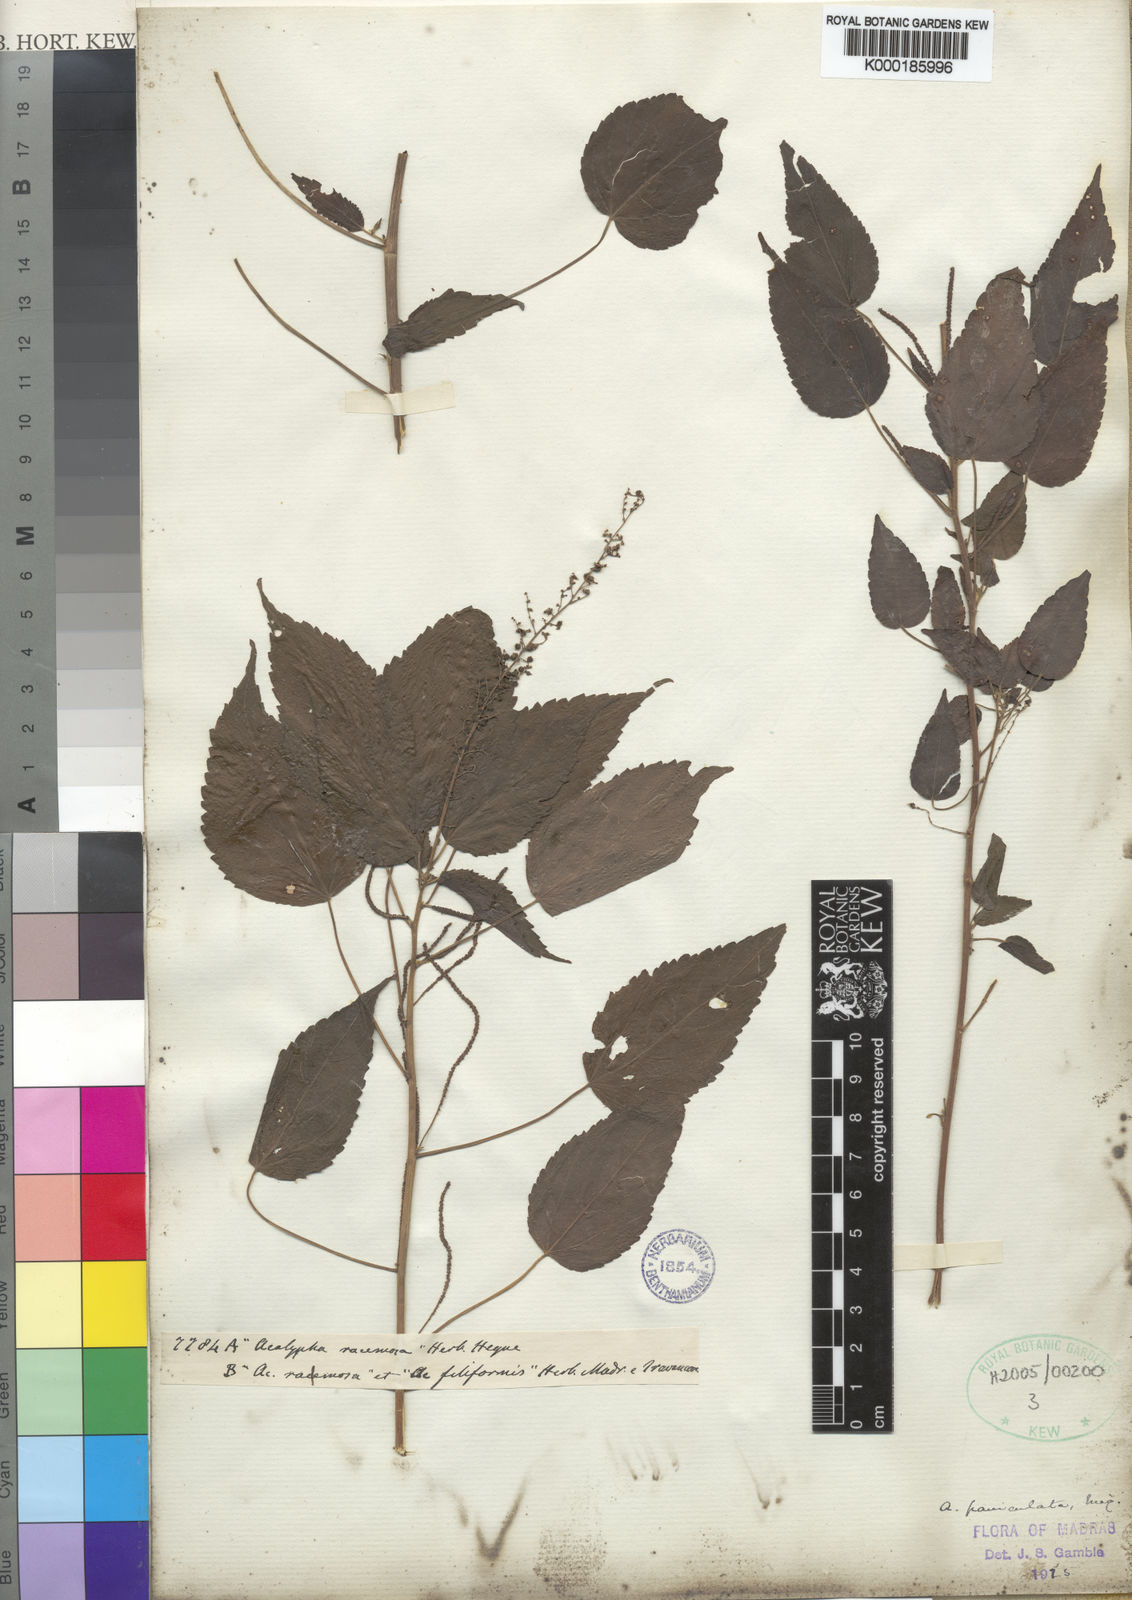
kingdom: Plantae
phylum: Tracheophyta
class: Magnoliopsida
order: Malpighiales
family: Euphorbiaceae
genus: Acalypha
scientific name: Acalypha paniculata
